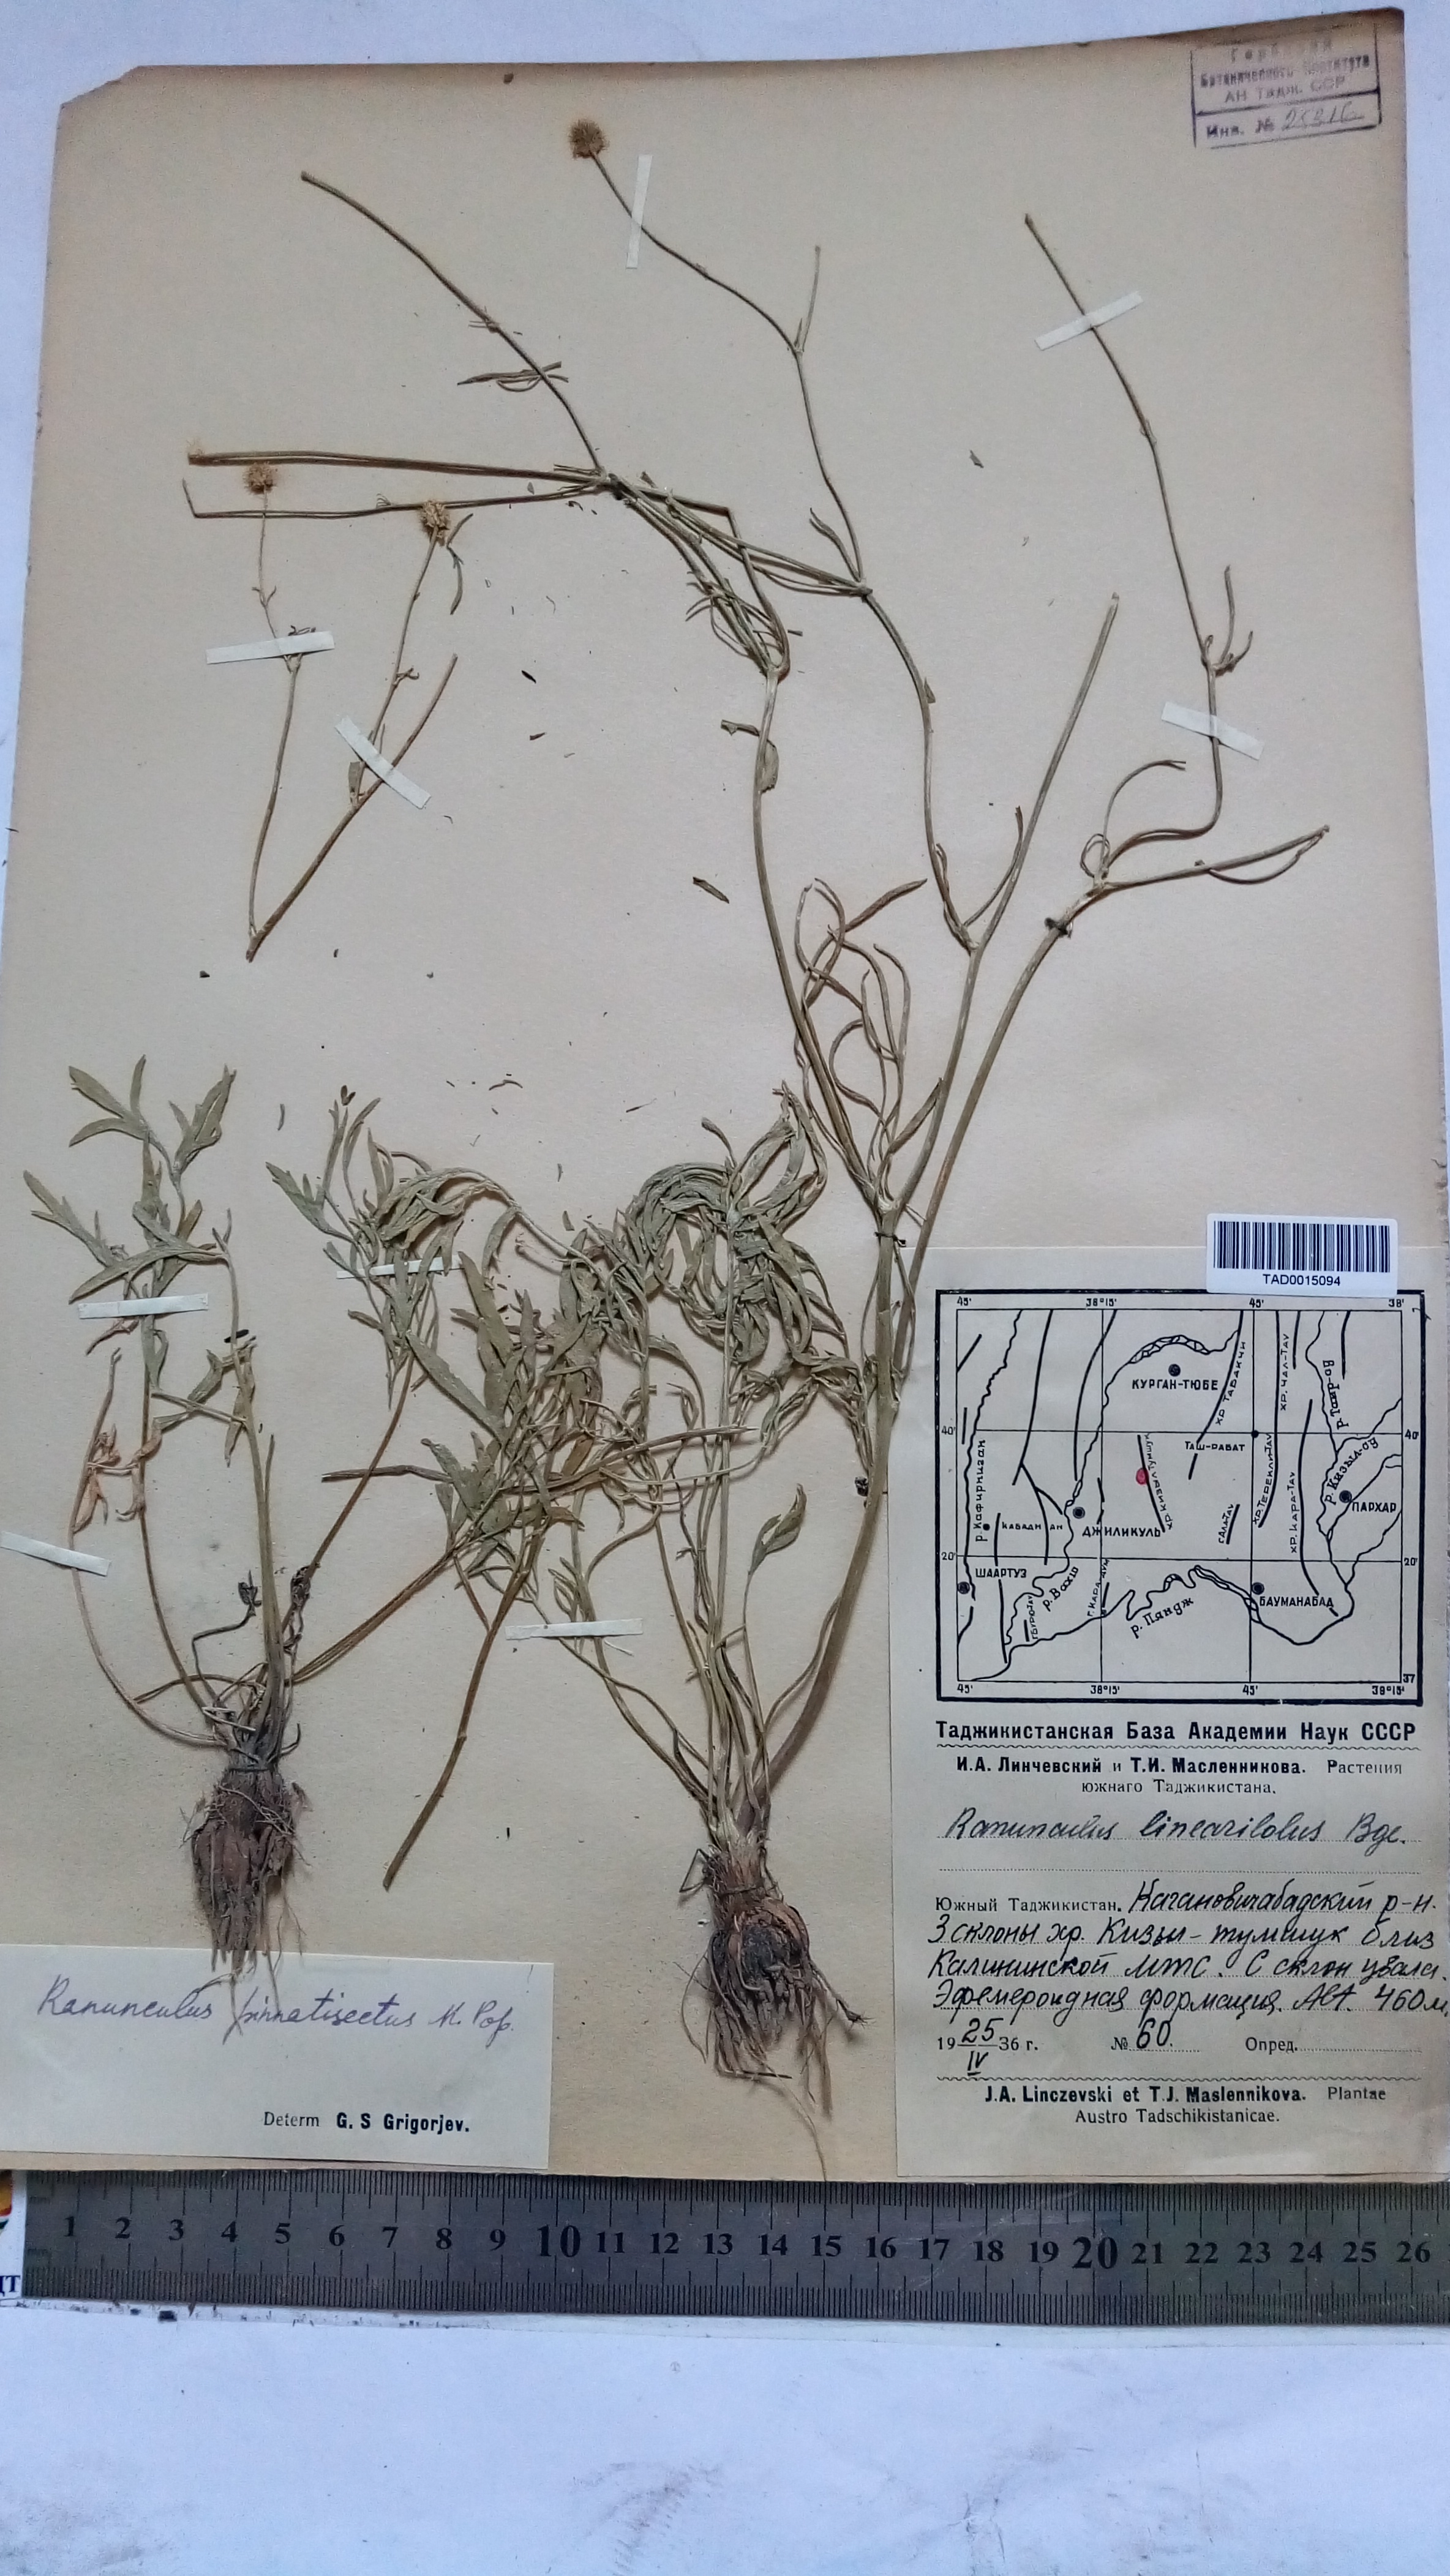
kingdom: Plantae
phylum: Tracheophyta
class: Magnoliopsida
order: Ranunculales
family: Ranunculaceae
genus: Ranunculus
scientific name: Ranunculus linearilobus
